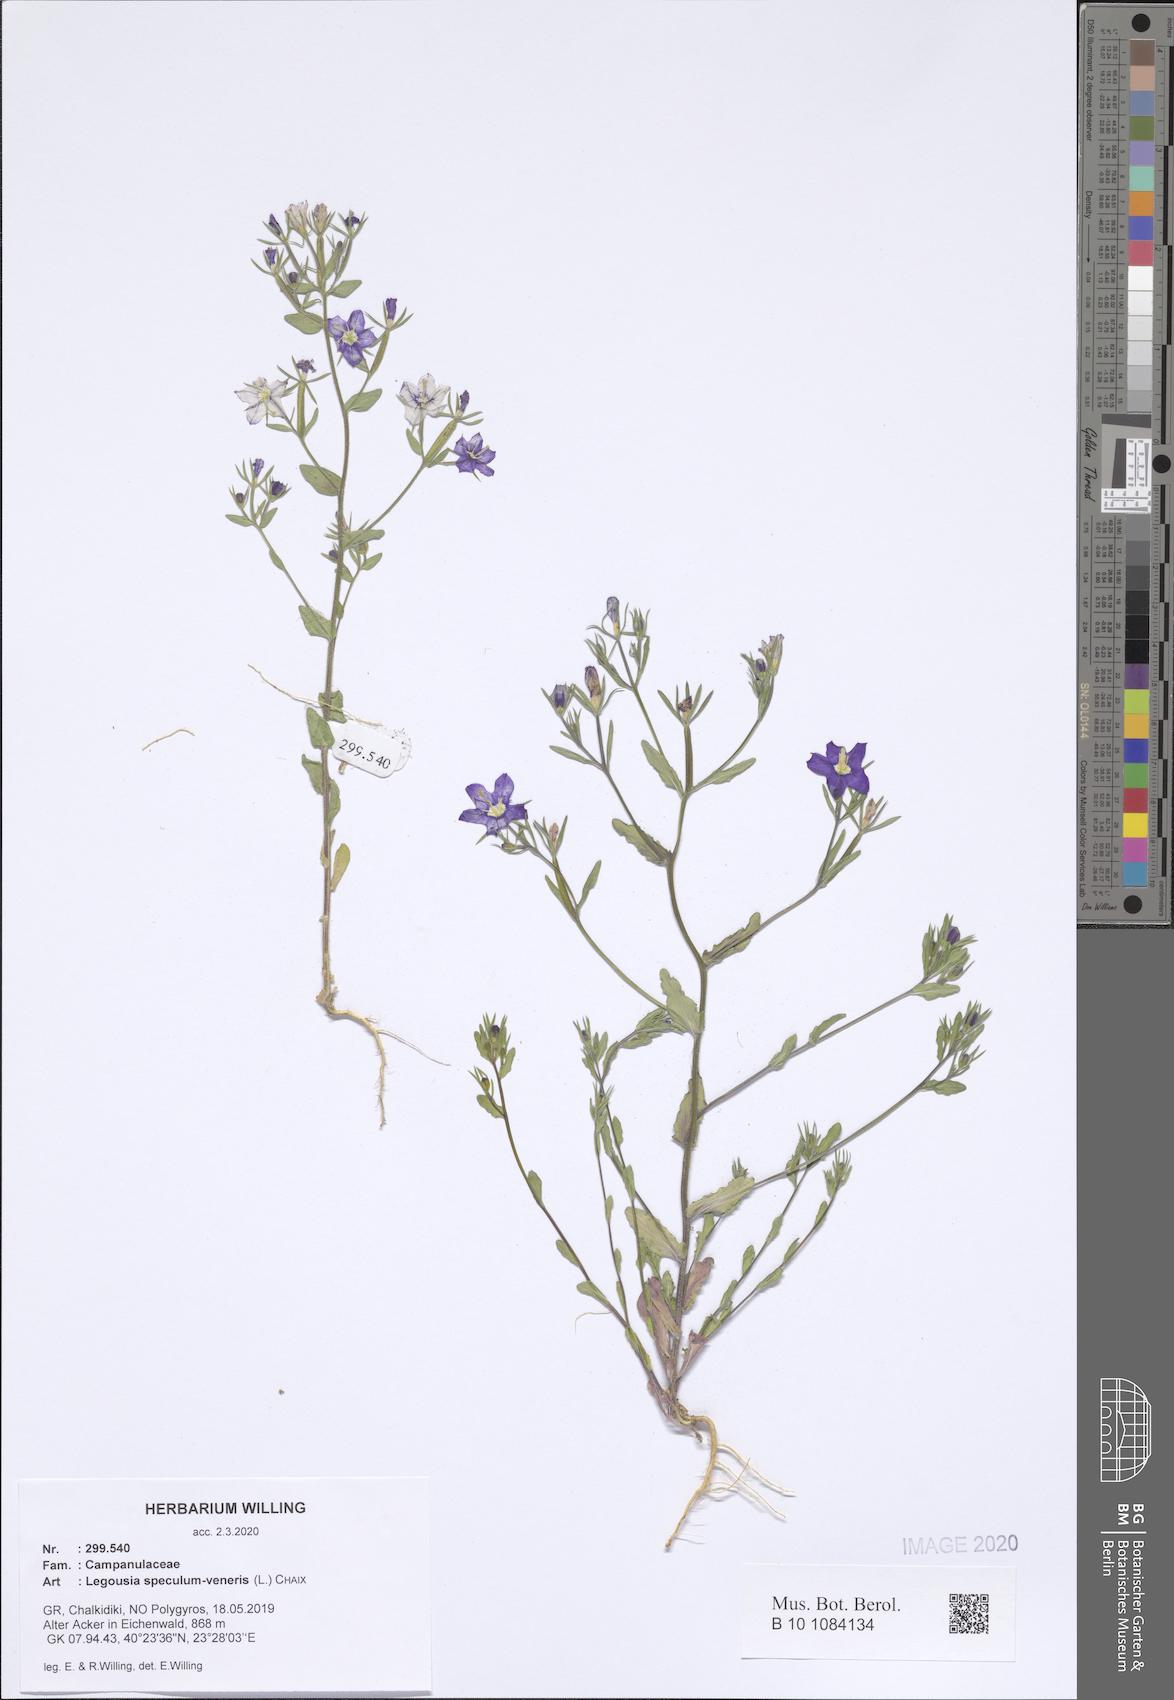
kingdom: Plantae
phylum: Tracheophyta
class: Magnoliopsida
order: Asterales
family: Campanulaceae
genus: Legousia
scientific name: Legousia speculum-veneris
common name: Large venus's-looking-glass
